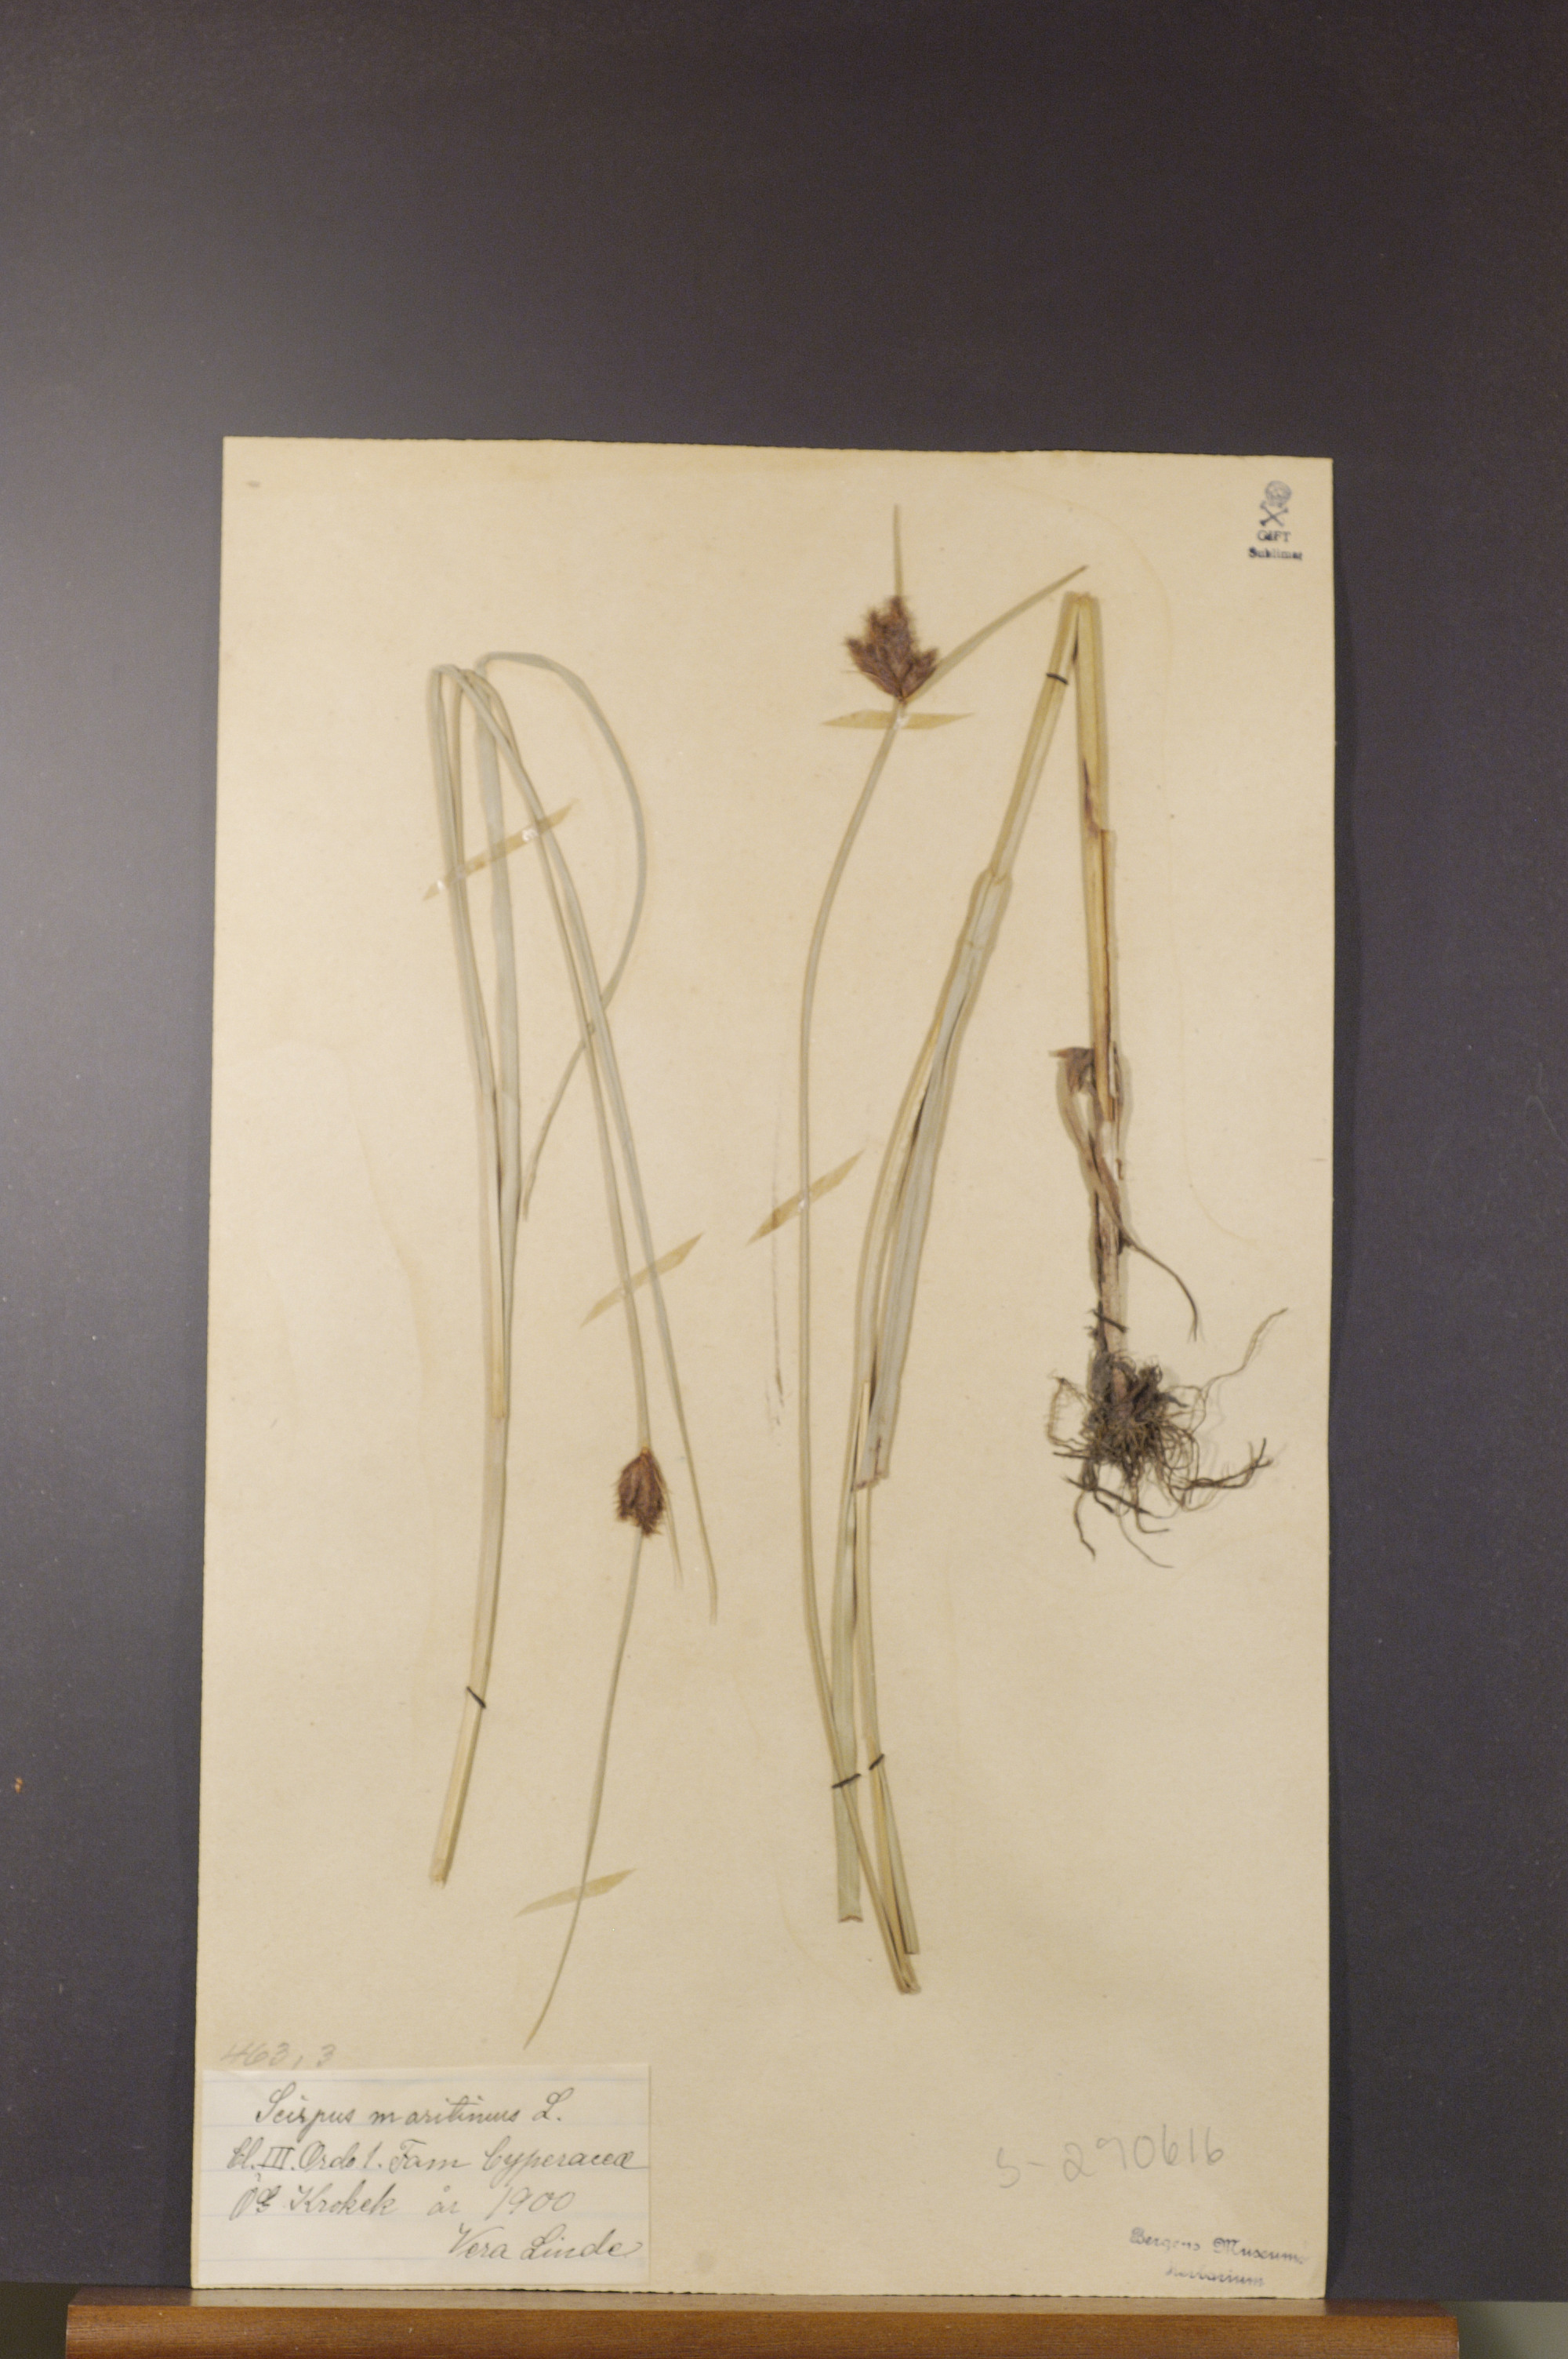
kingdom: Plantae
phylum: Tracheophyta
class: Liliopsida
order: Poales
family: Cyperaceae
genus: Bolboschoenus
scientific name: Bolboschoenus maritimus
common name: Sea club-rush
